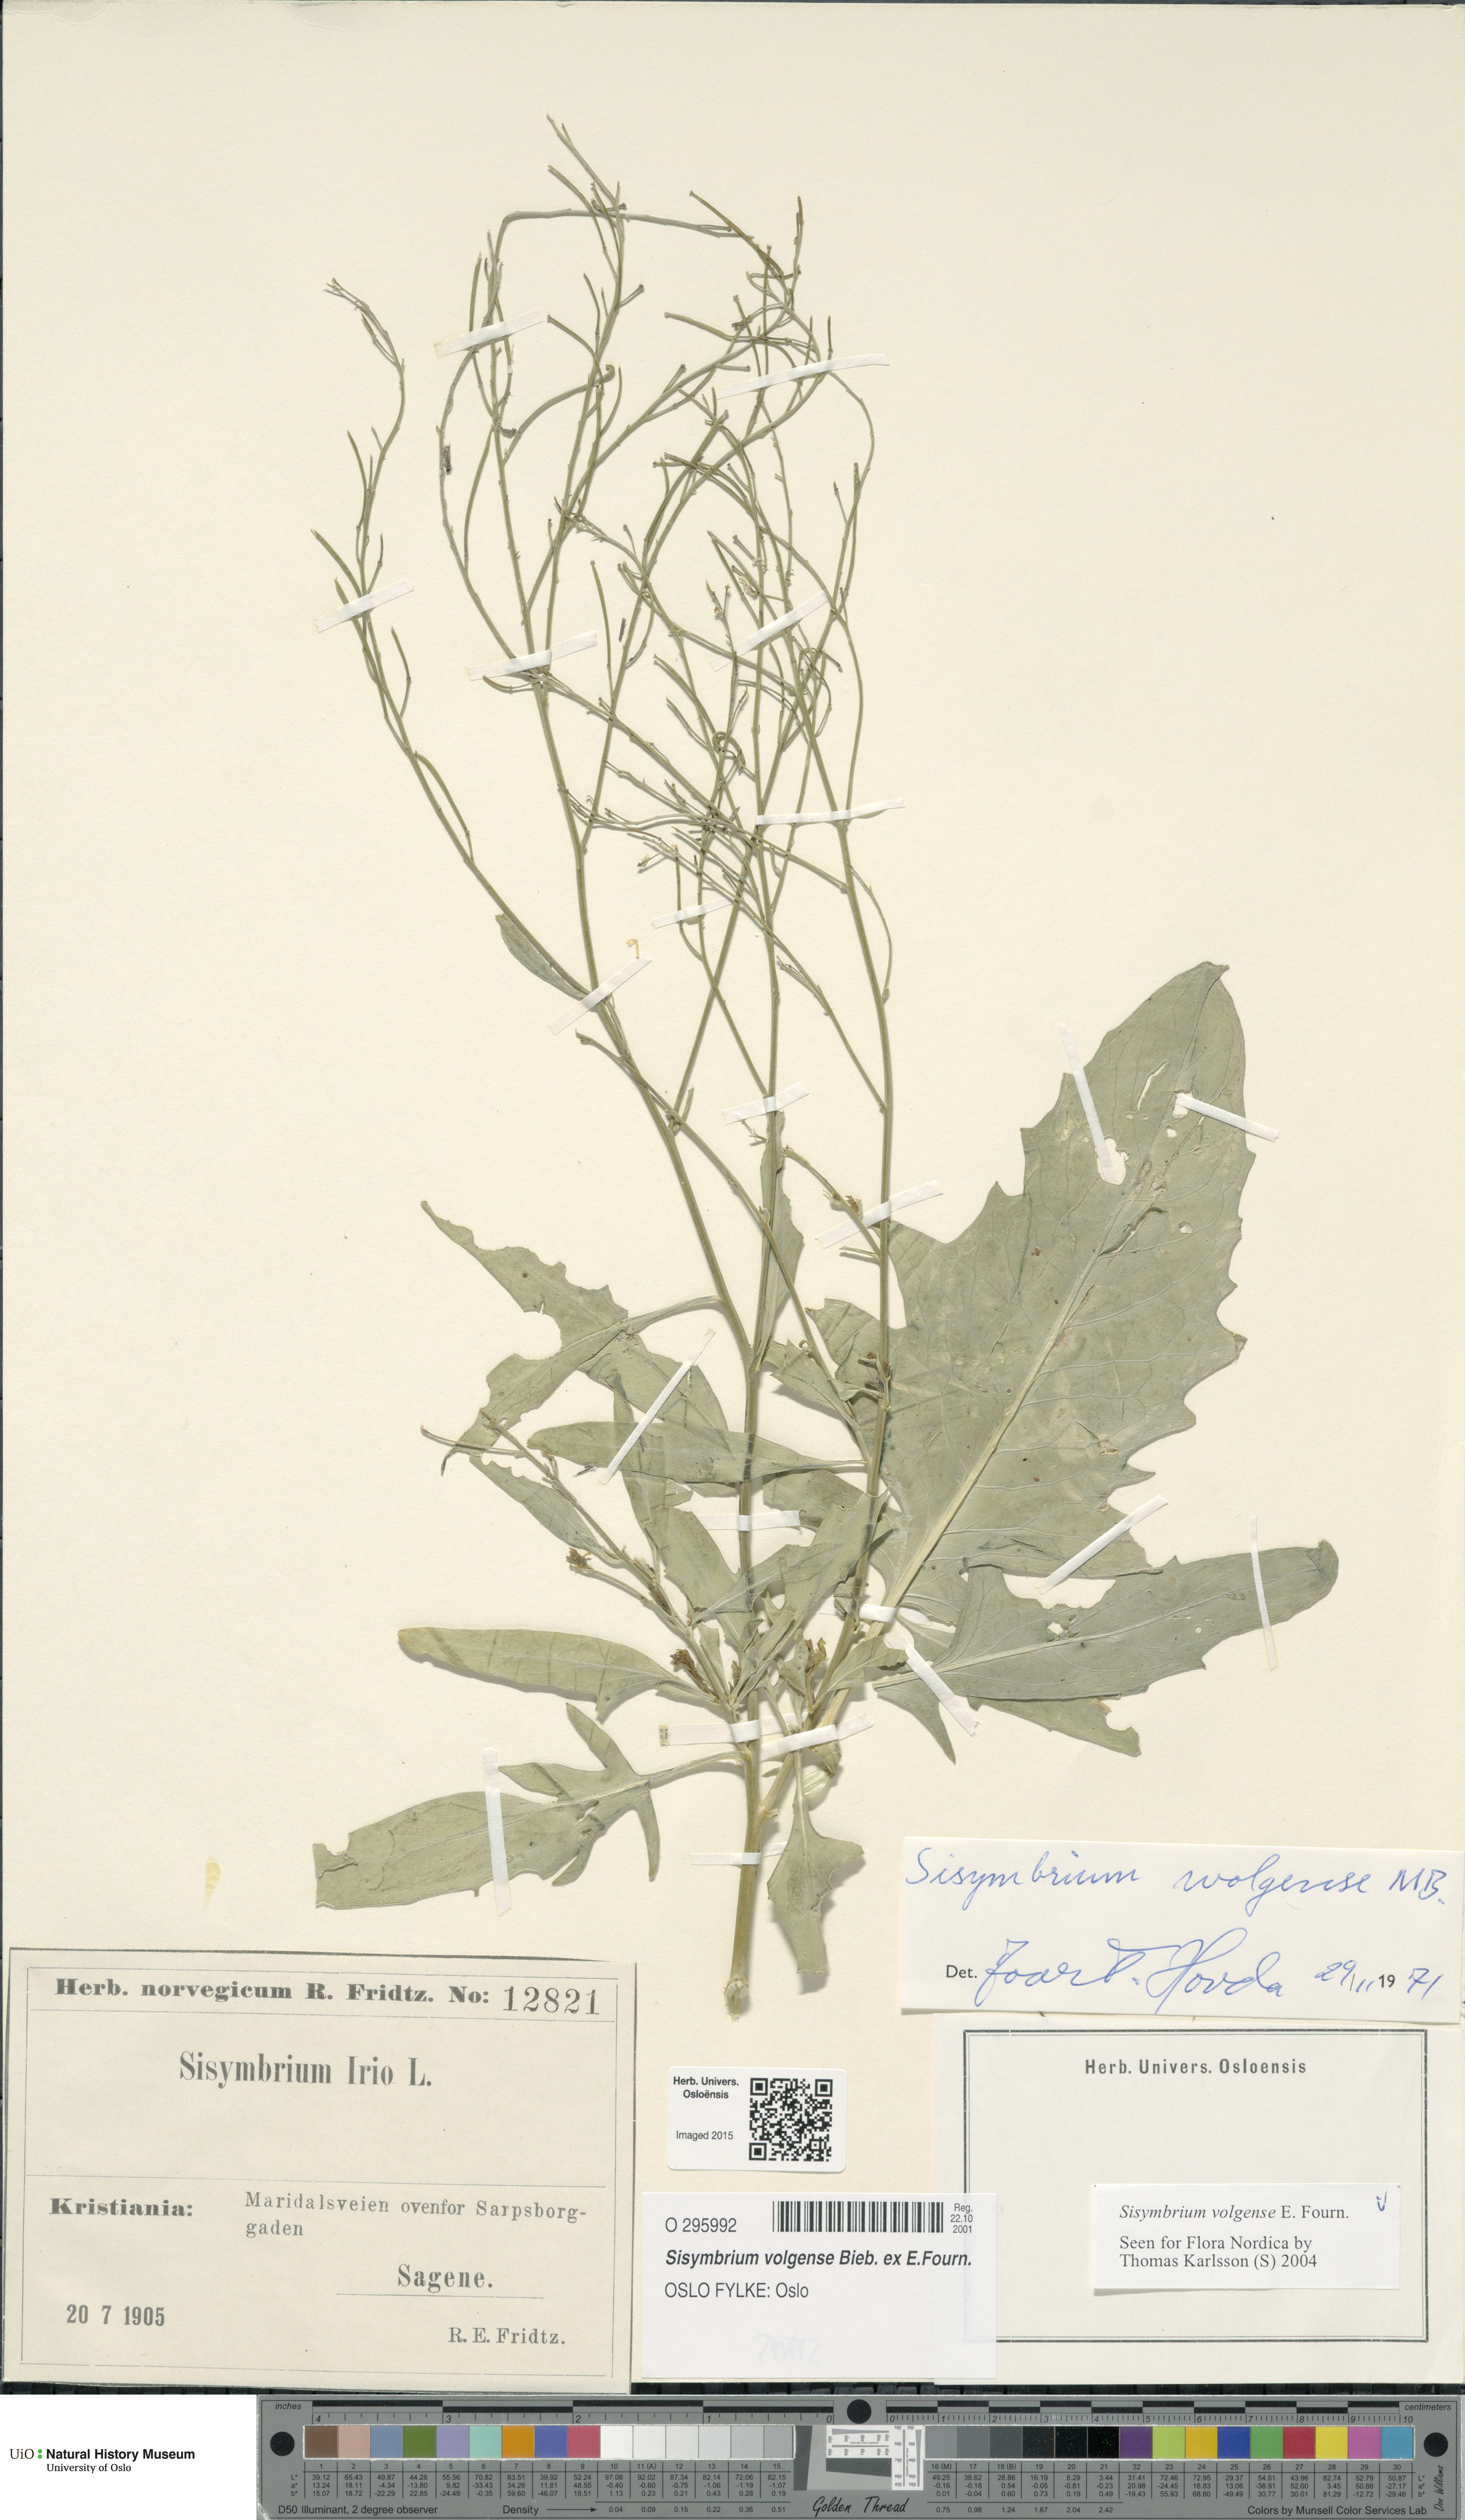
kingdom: Plantae
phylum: Tracheophyta
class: Magnoliopsida
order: Brassicales
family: Brassicaceae
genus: Sisymbrium
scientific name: Sisymbrium volgense
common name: Russian mustard
